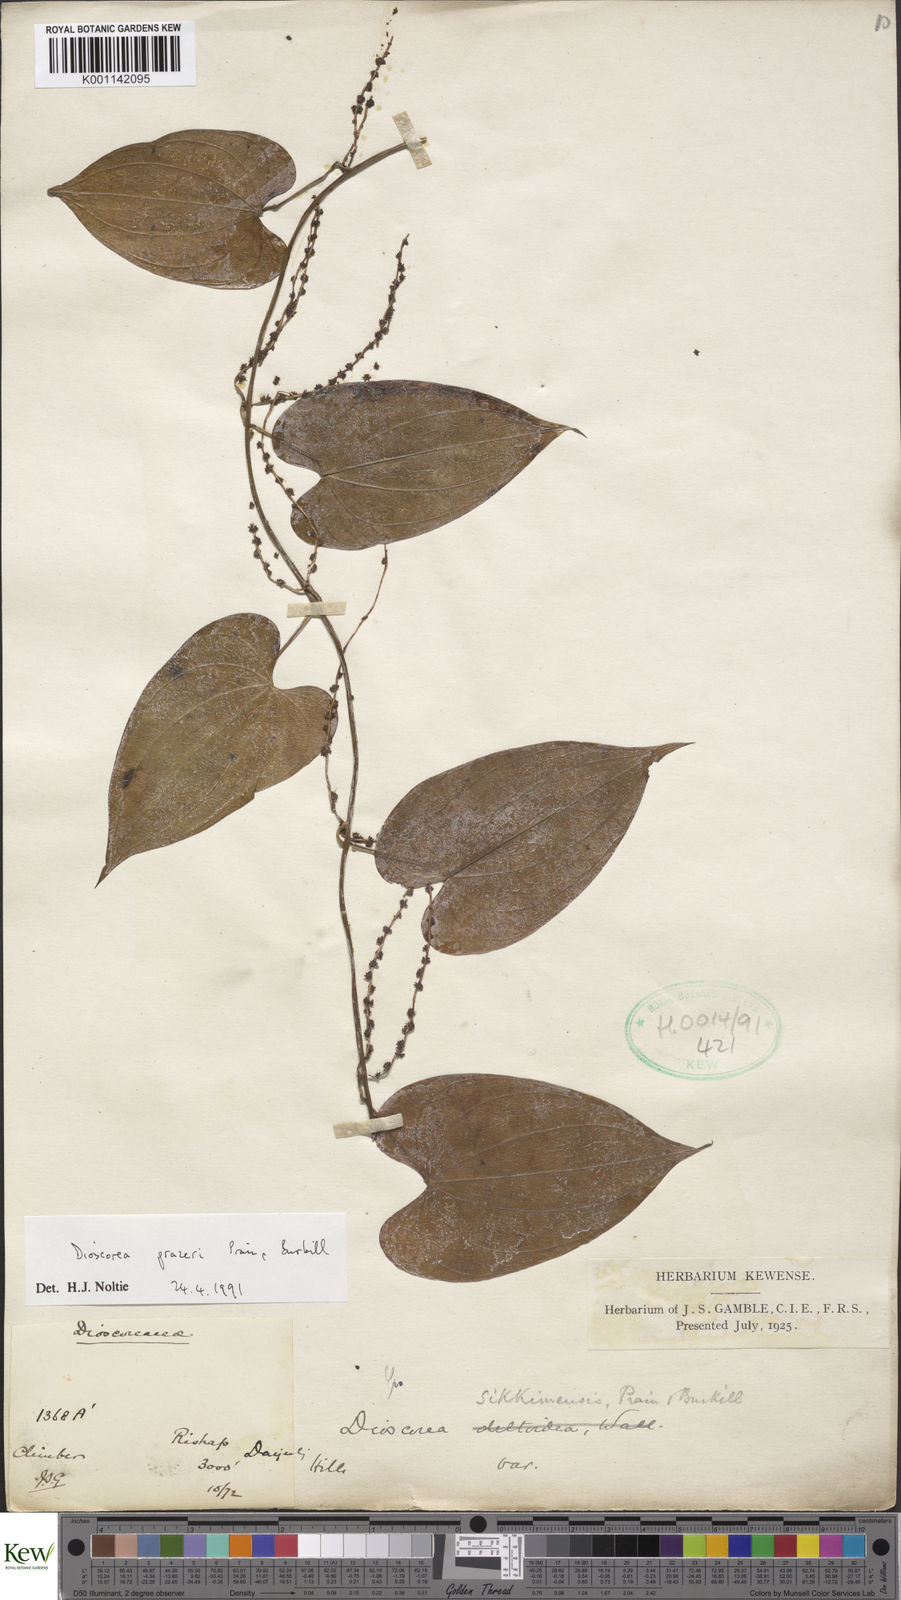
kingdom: Plantae
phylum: Tracheophyta
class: Liliopsida
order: Dioscoreales
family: Dioscoreaceae
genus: Dioscorea
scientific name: Dioscorea prazeri
